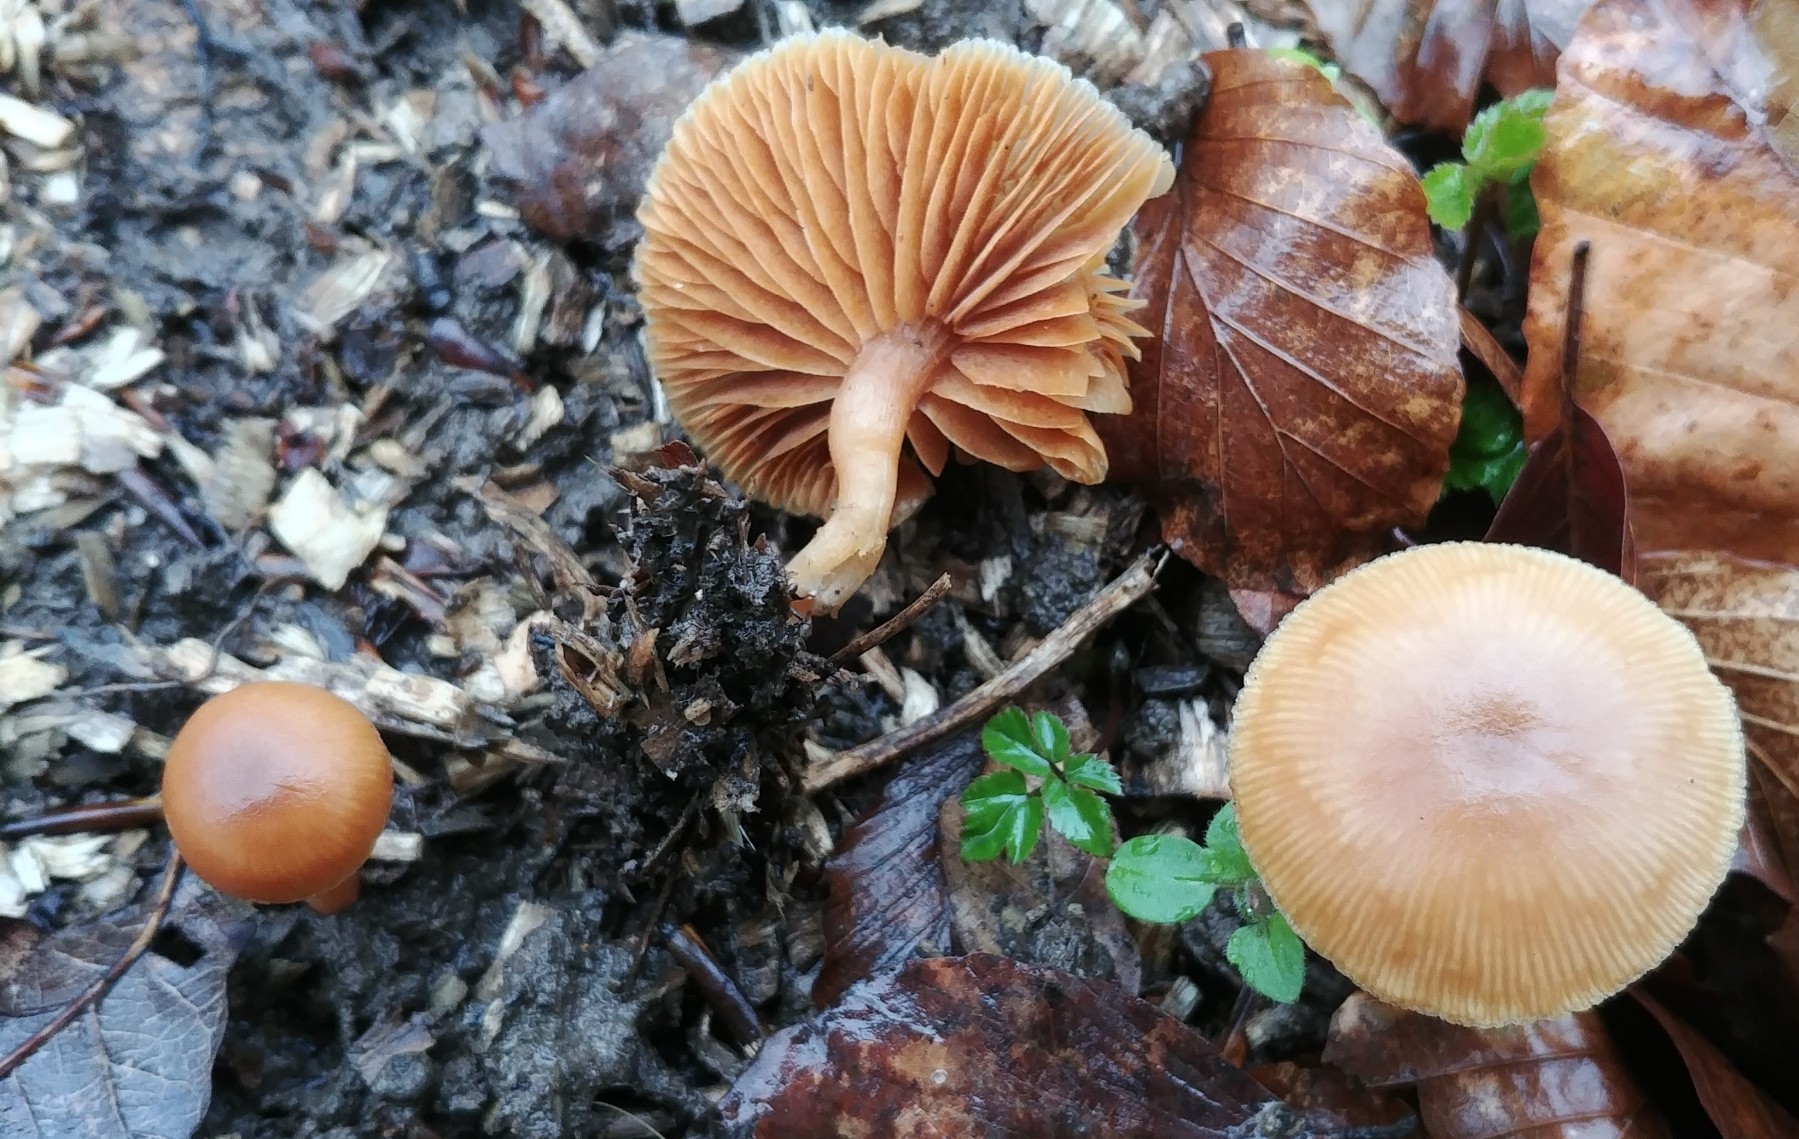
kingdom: Fungi
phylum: Basidiomycota
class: Agaricomycetes
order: Agaricales
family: Tubariaceae
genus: Tubaria
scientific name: Tubaria furfuracea
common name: kliddet fnughat
